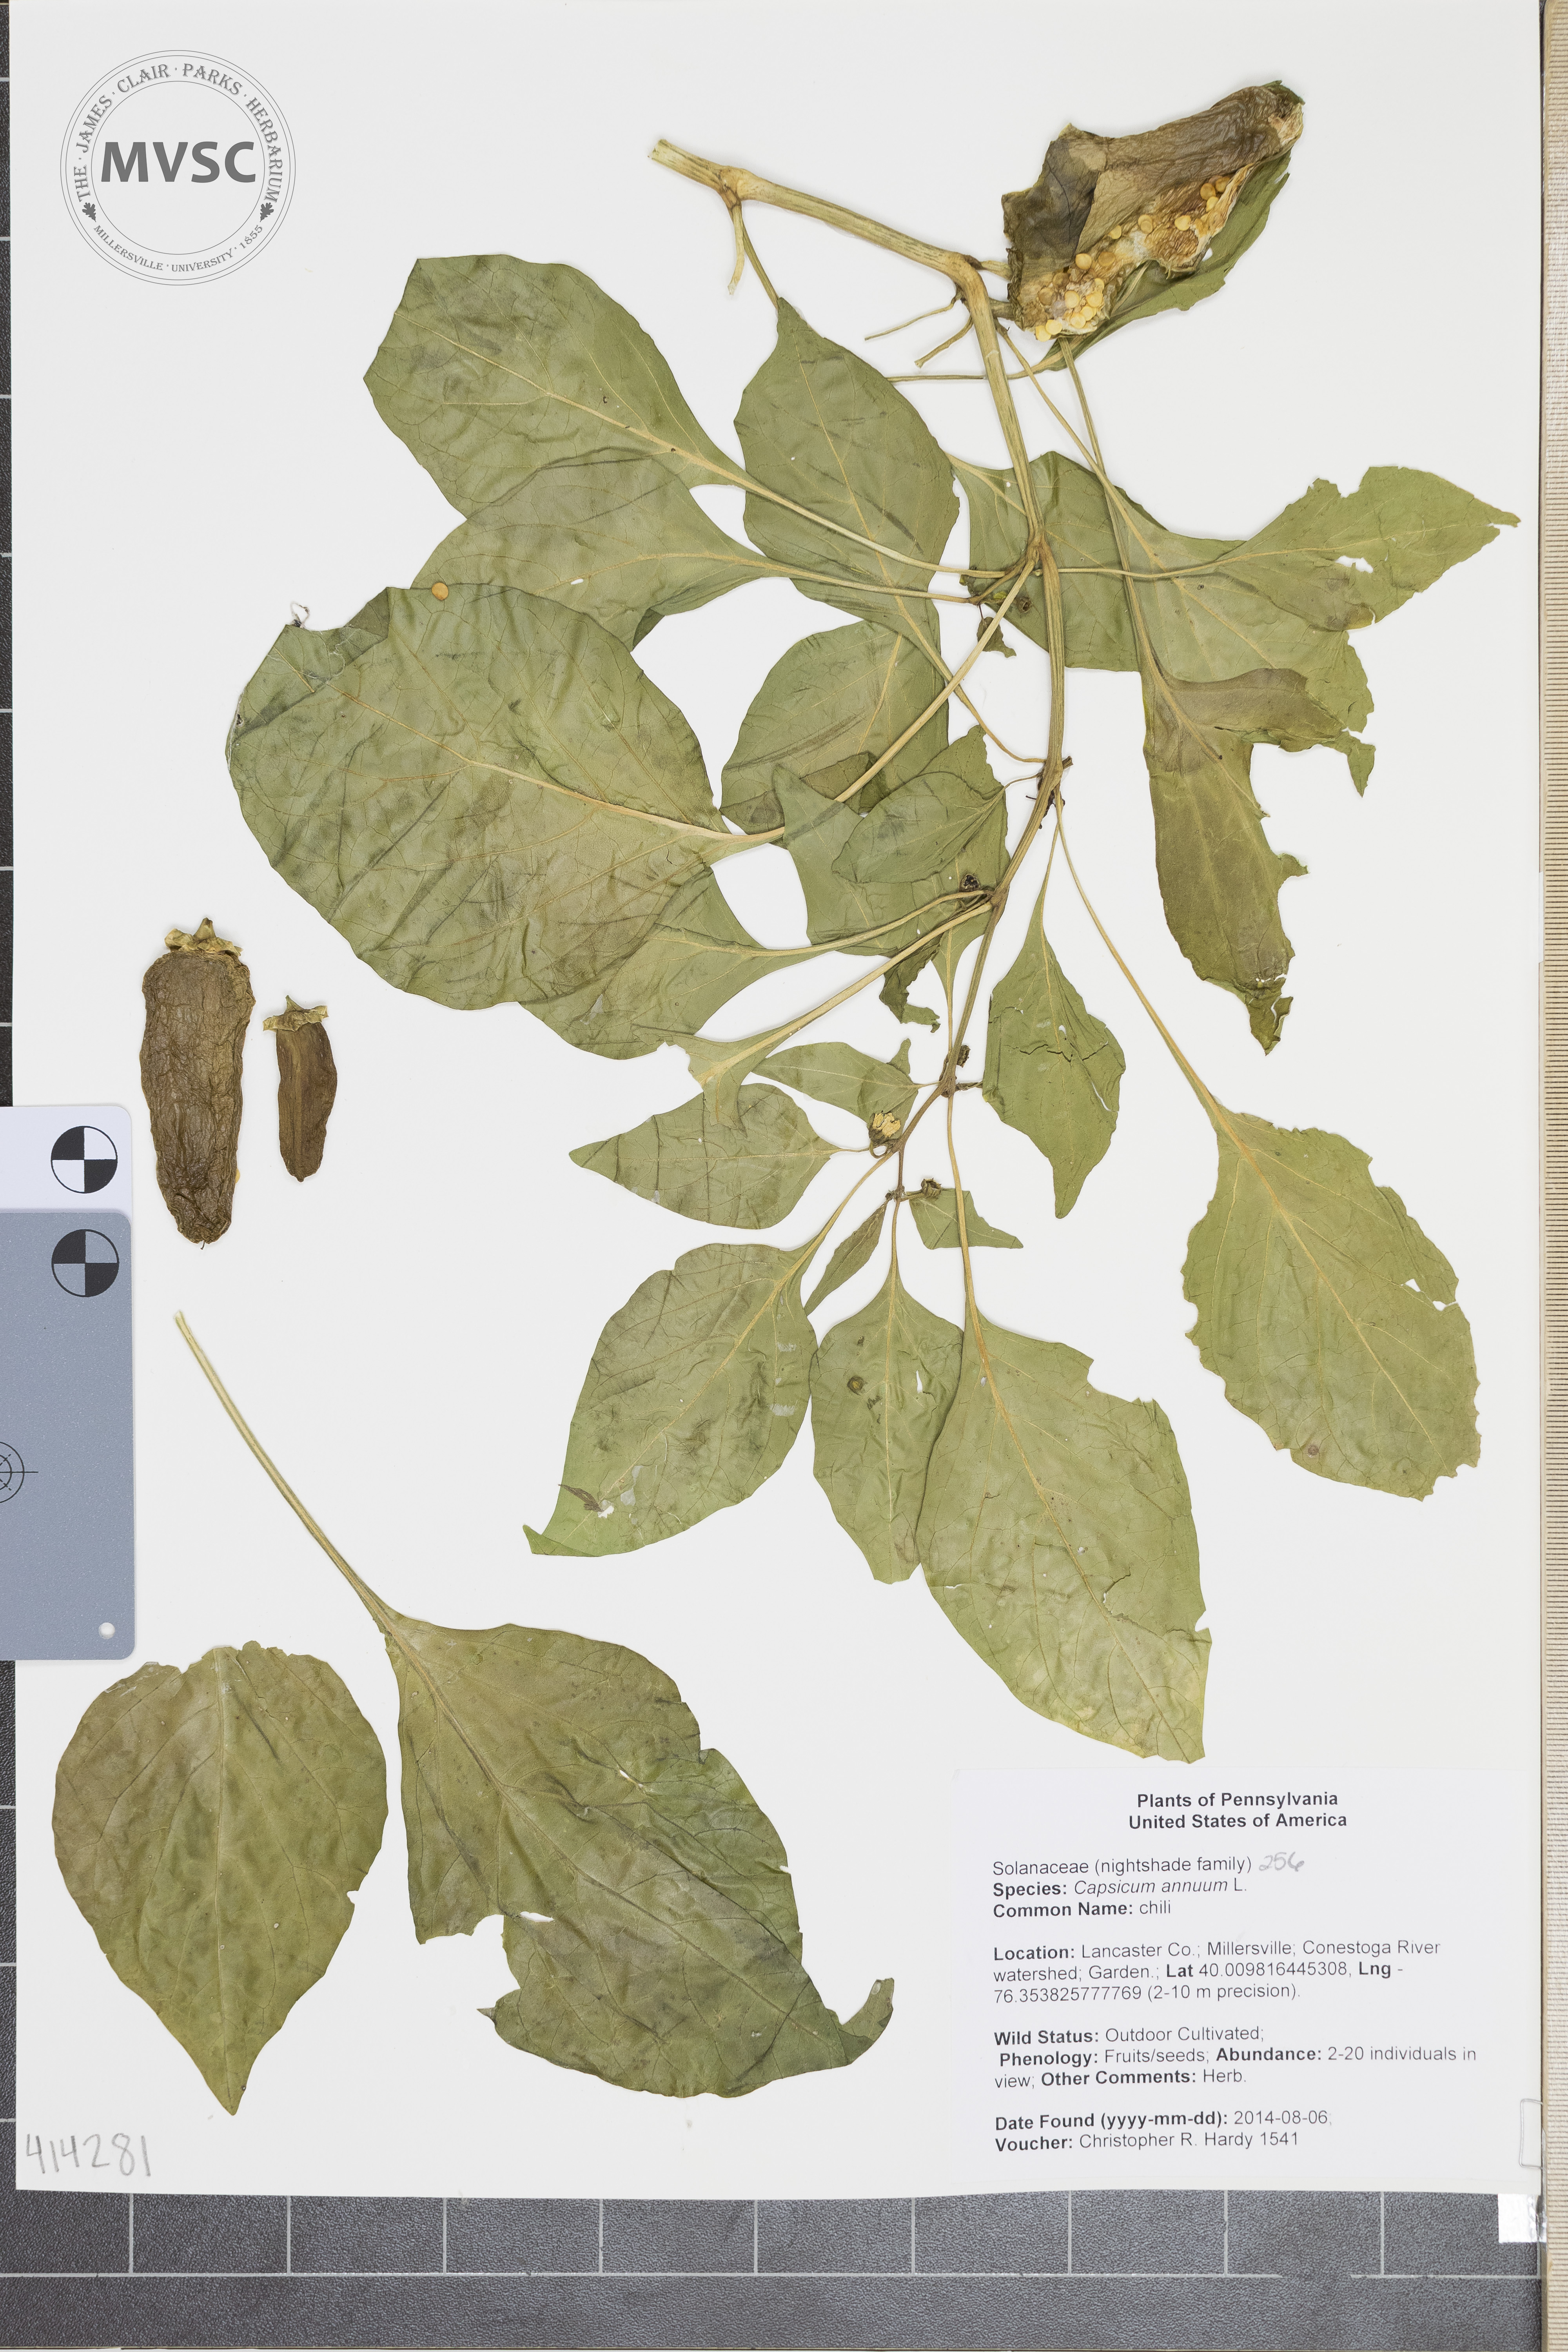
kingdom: Plantae
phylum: Tracheophyta
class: Magnoliopsida
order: Solanales
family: Solanaceae
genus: Capsicum
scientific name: Capsicum annuum
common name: chili
